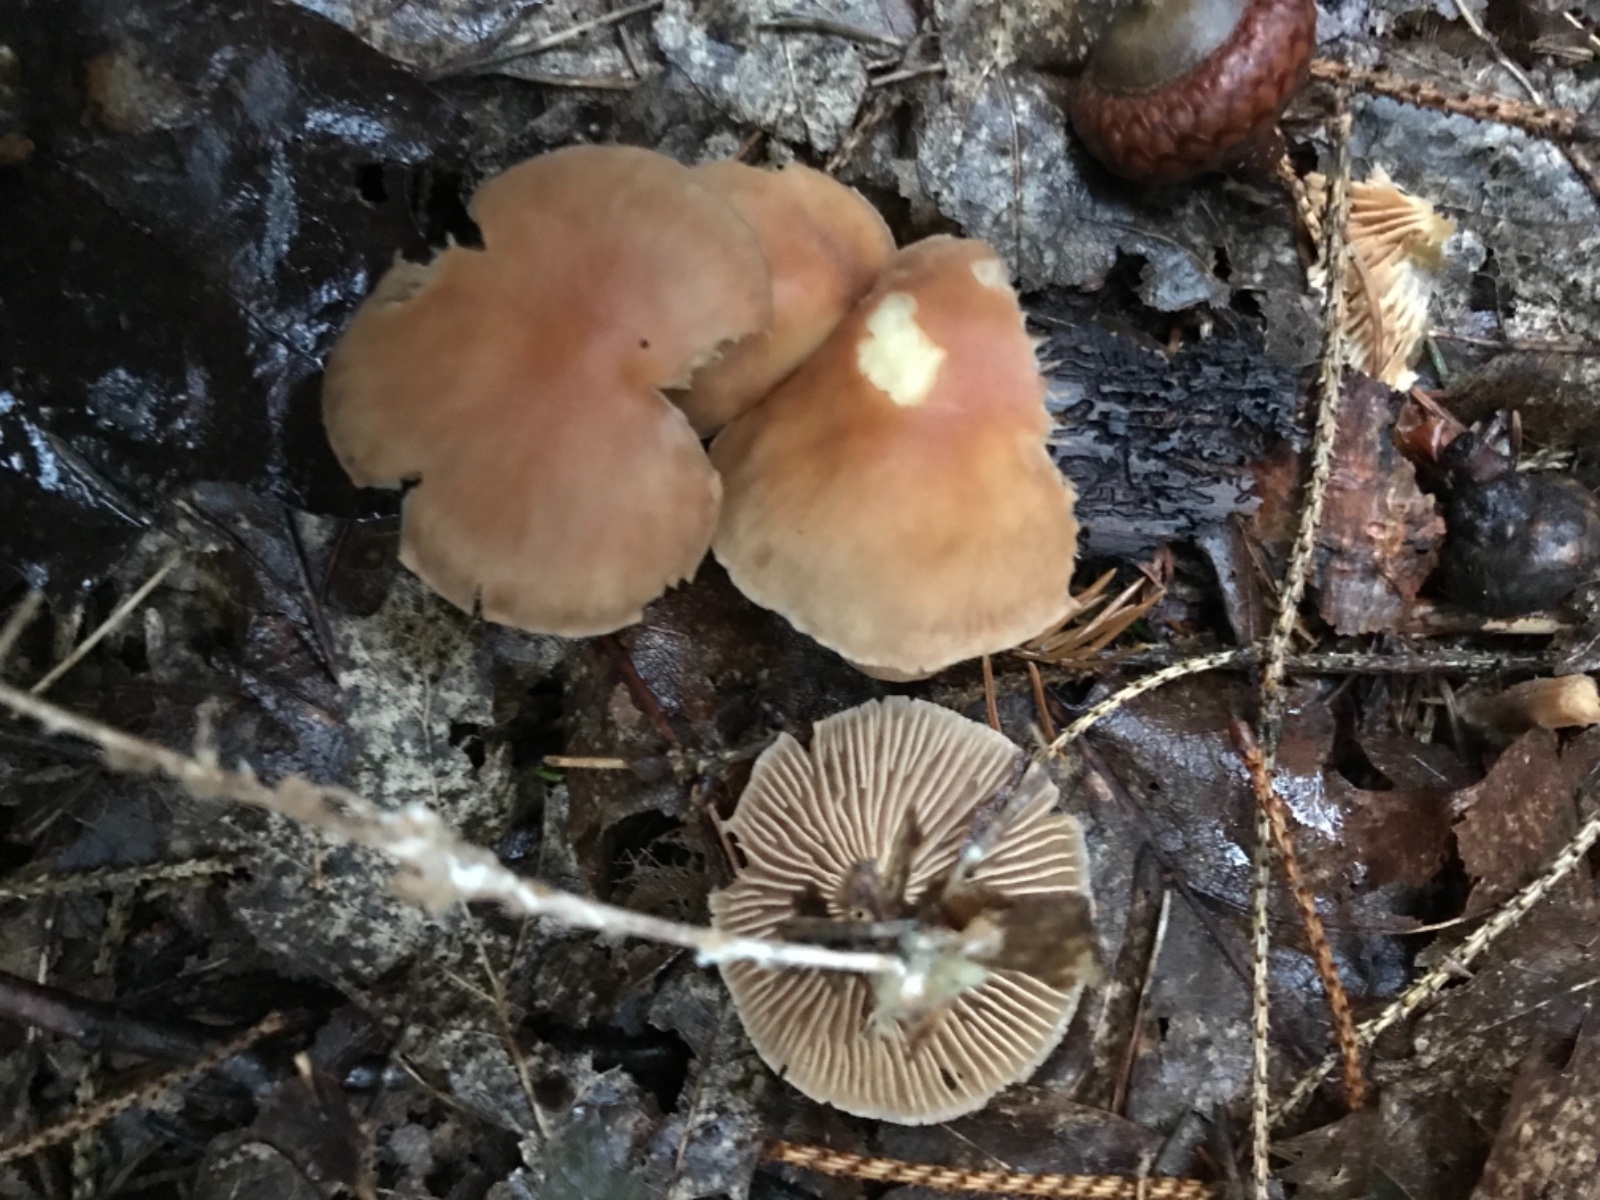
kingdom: Fungi
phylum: Basidiomycota
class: Agaricomycetes
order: Agaricales
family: Omphalotaceae
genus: Collybiopsis
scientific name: Collybiopsis peronata
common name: bestøvlet fladhat
